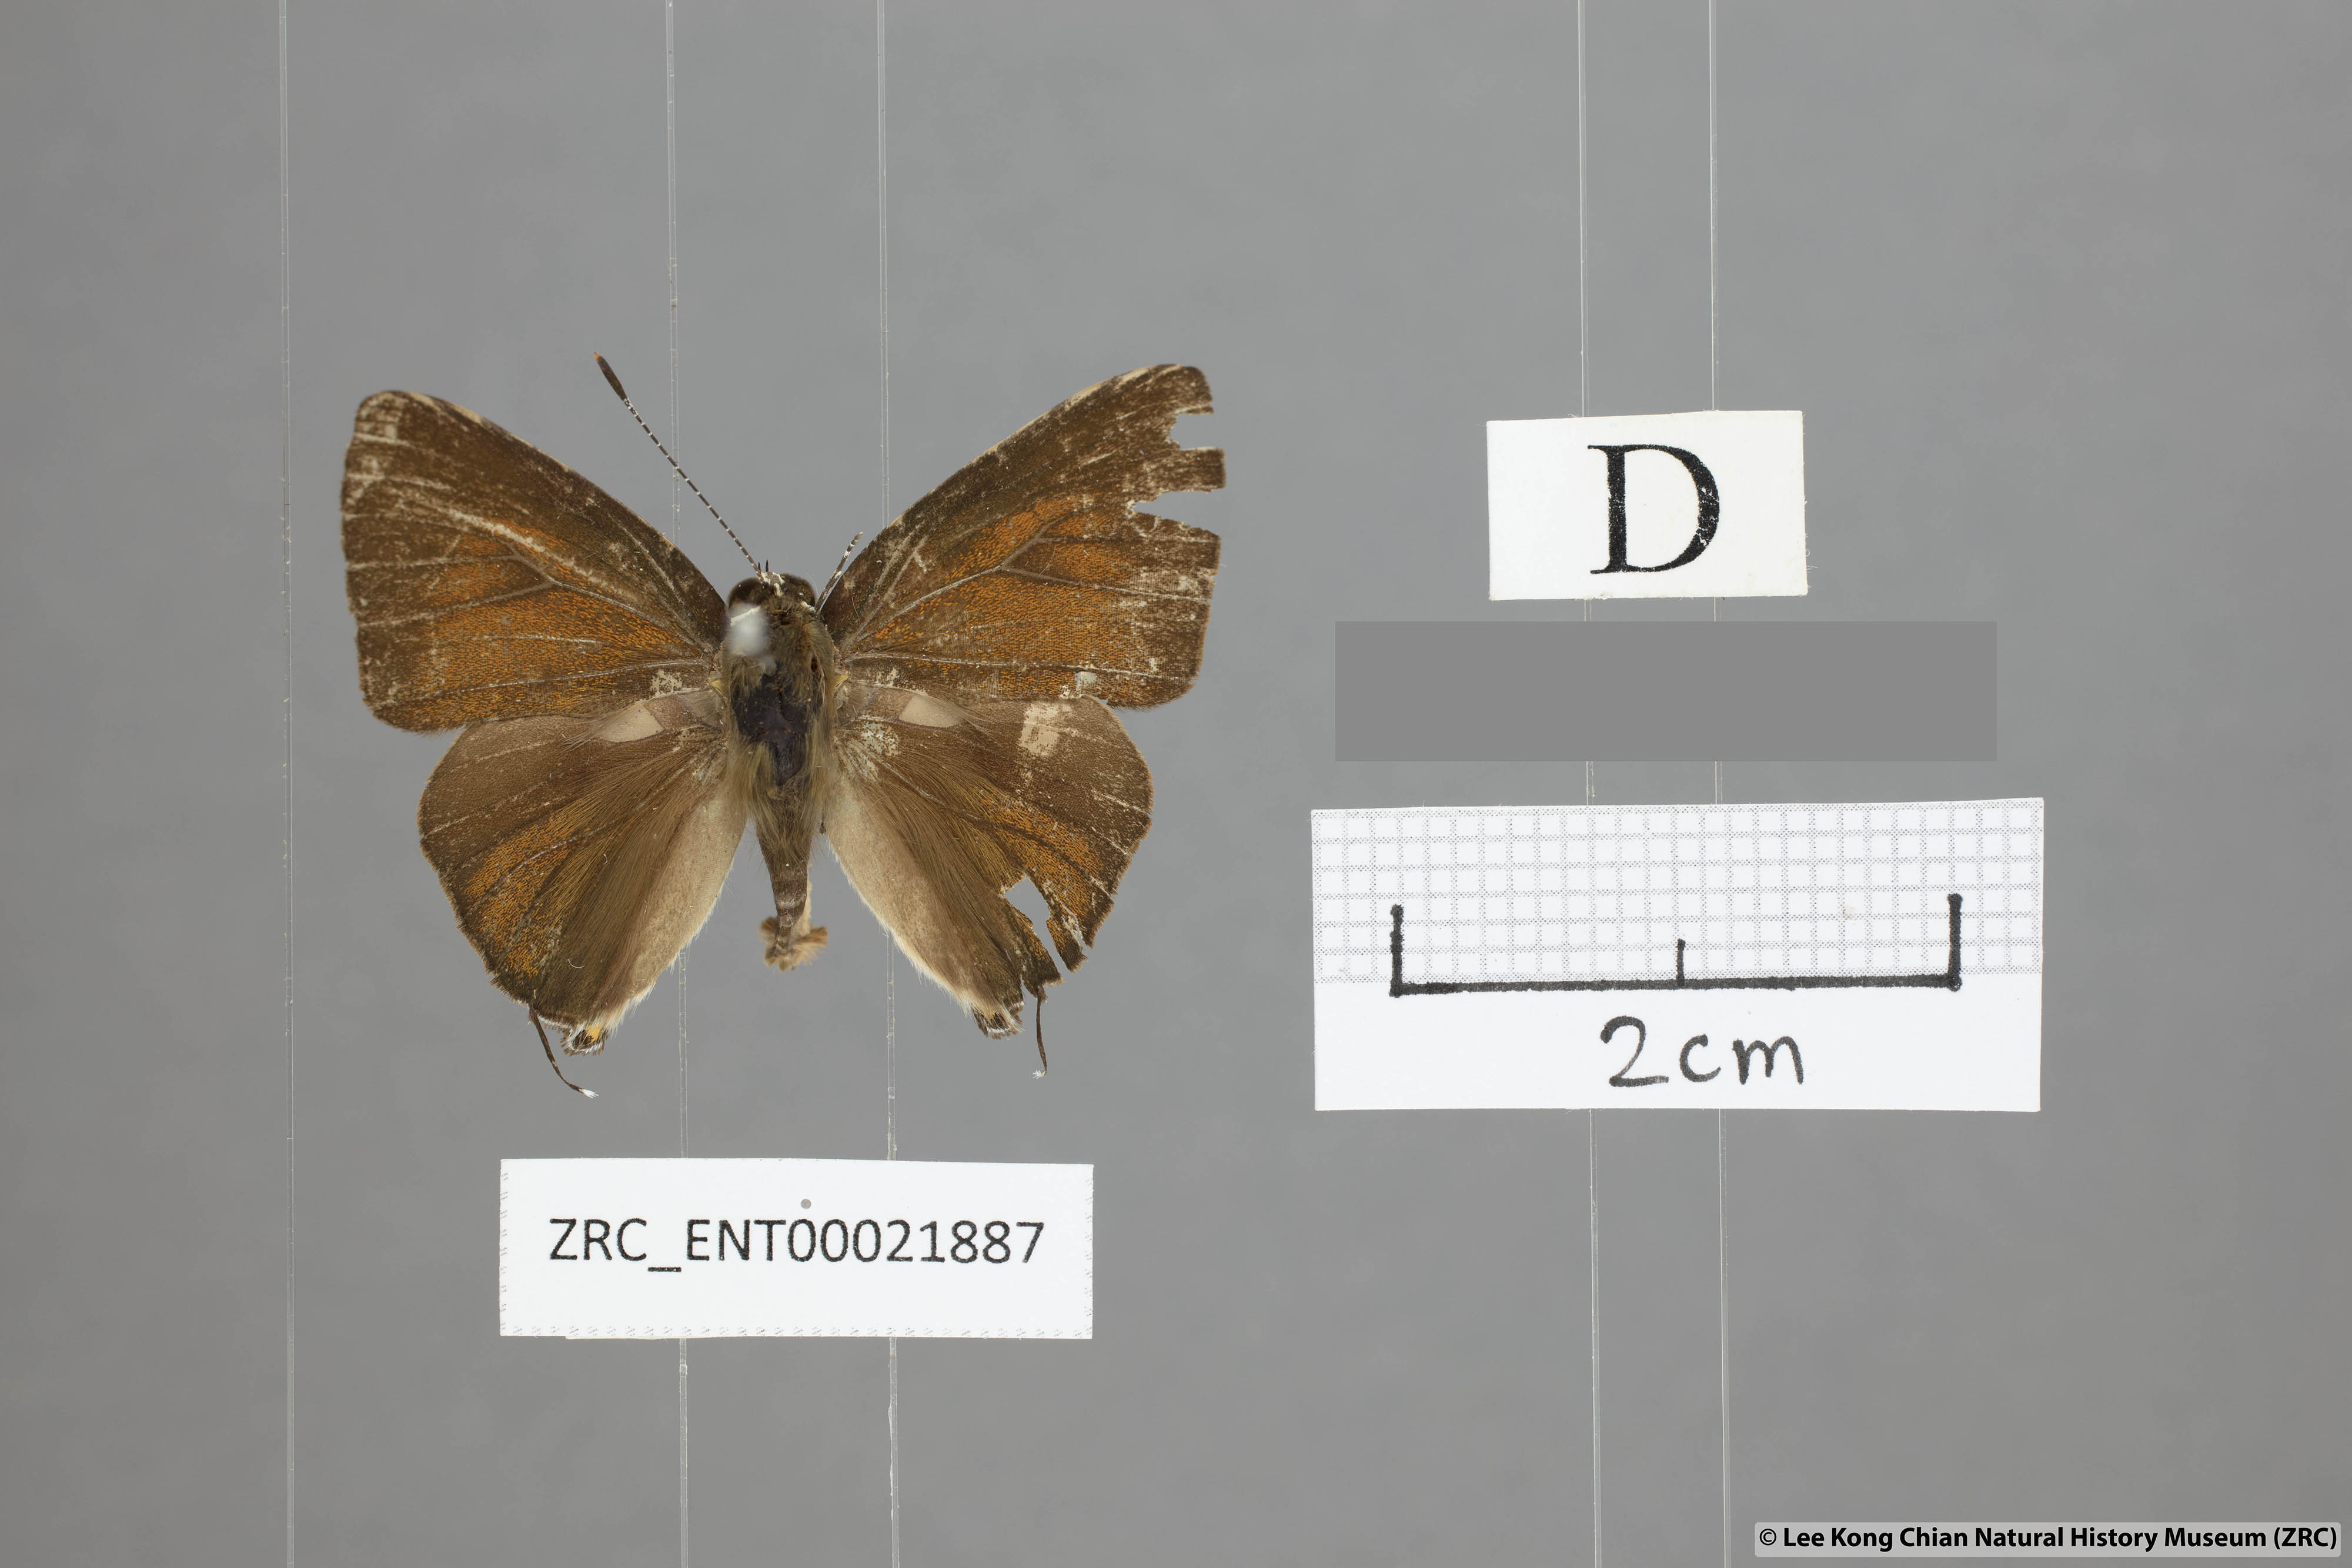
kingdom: Animalia
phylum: Arthropoda
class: Insecta
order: Lepidoptera
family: Lycaenidae
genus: Rapala
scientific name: Rapala rhodopis
